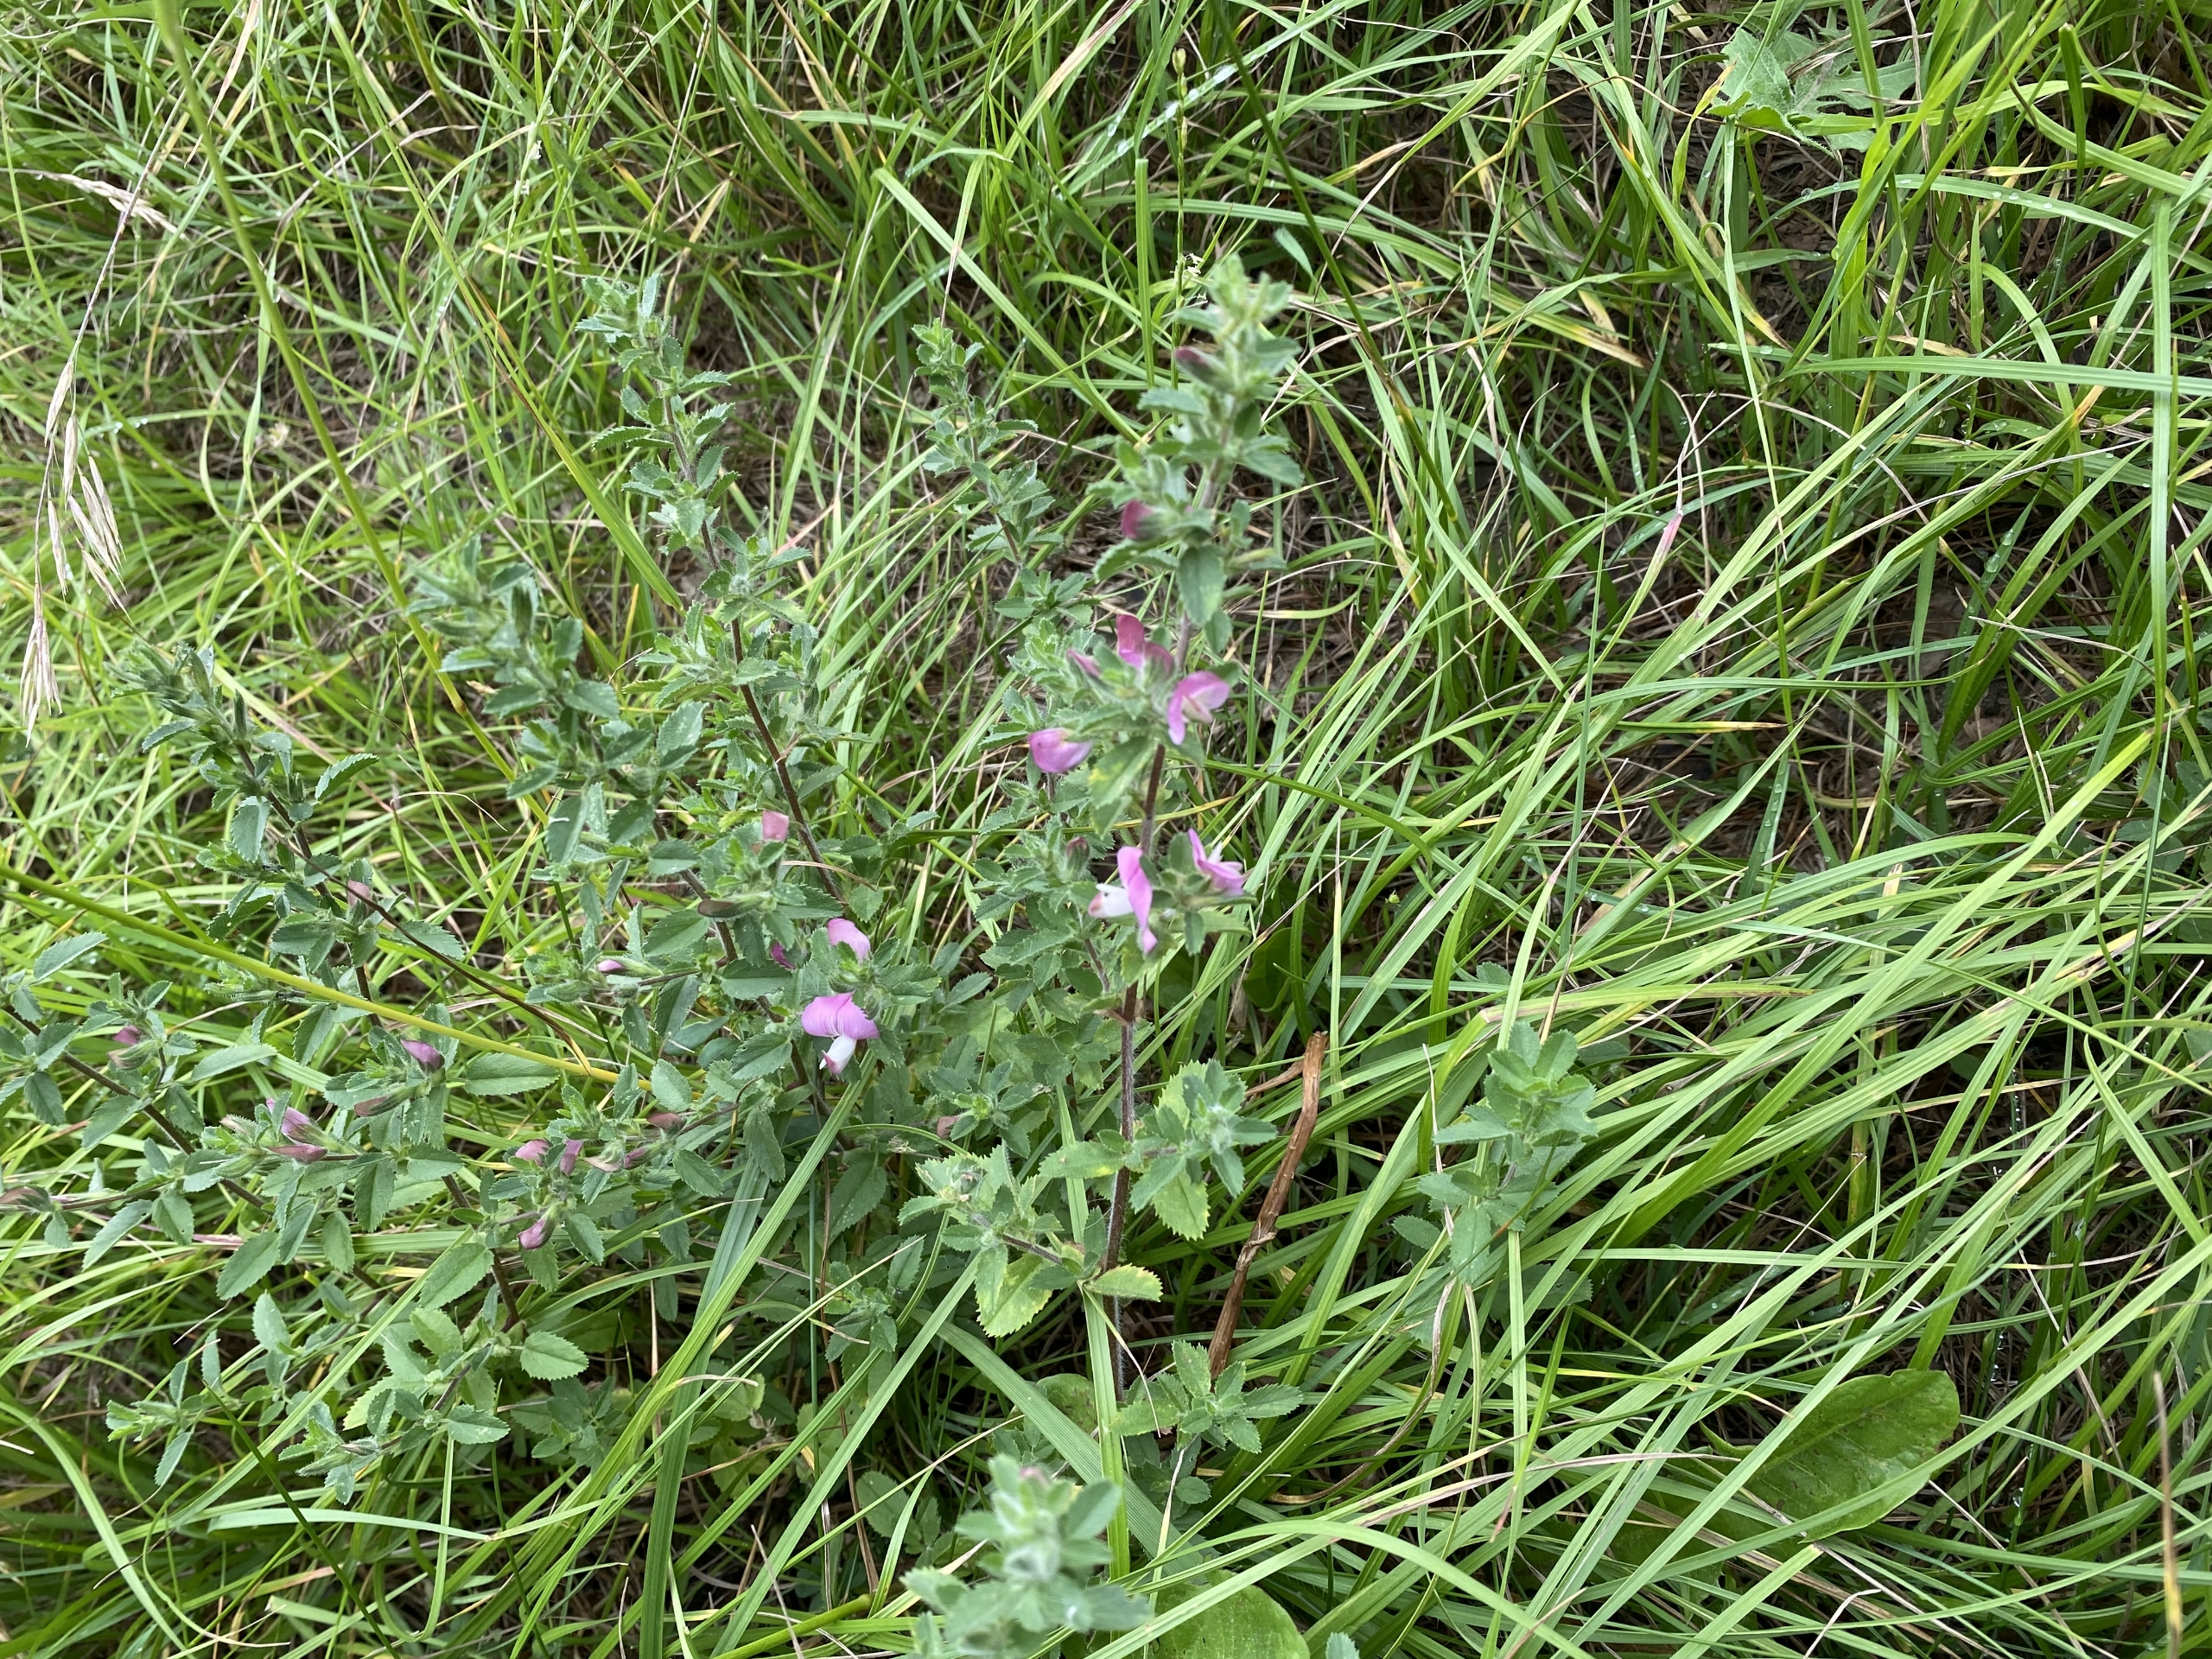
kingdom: Plantae
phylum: Tracheophyta
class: Magnoliopsida
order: Fabales
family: Fabaceae
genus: Ononis
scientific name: Ononis spinosa
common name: Strand-krageklo
